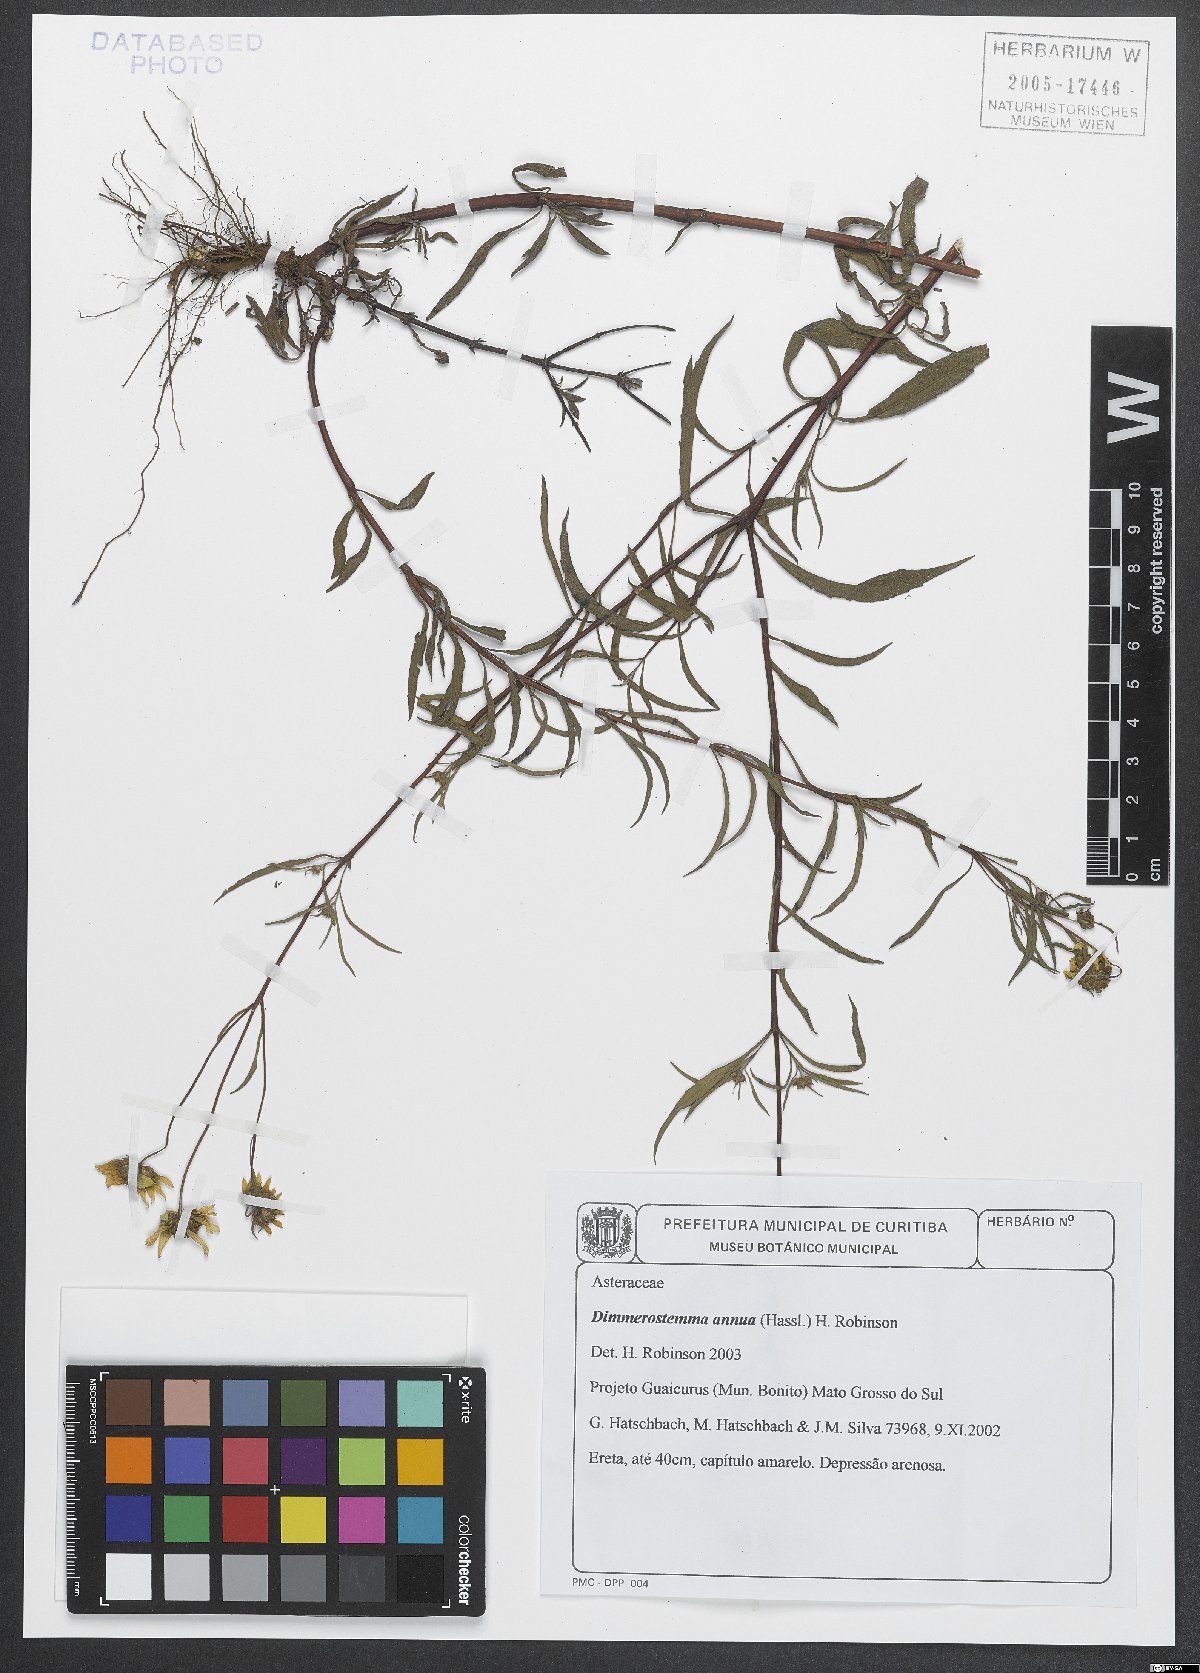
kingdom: Plantae
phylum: Tracheophyta
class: Magnoliopsida
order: Asterales
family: Asteraceae
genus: Dimerostemma
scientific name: Dimerostemma annuum
